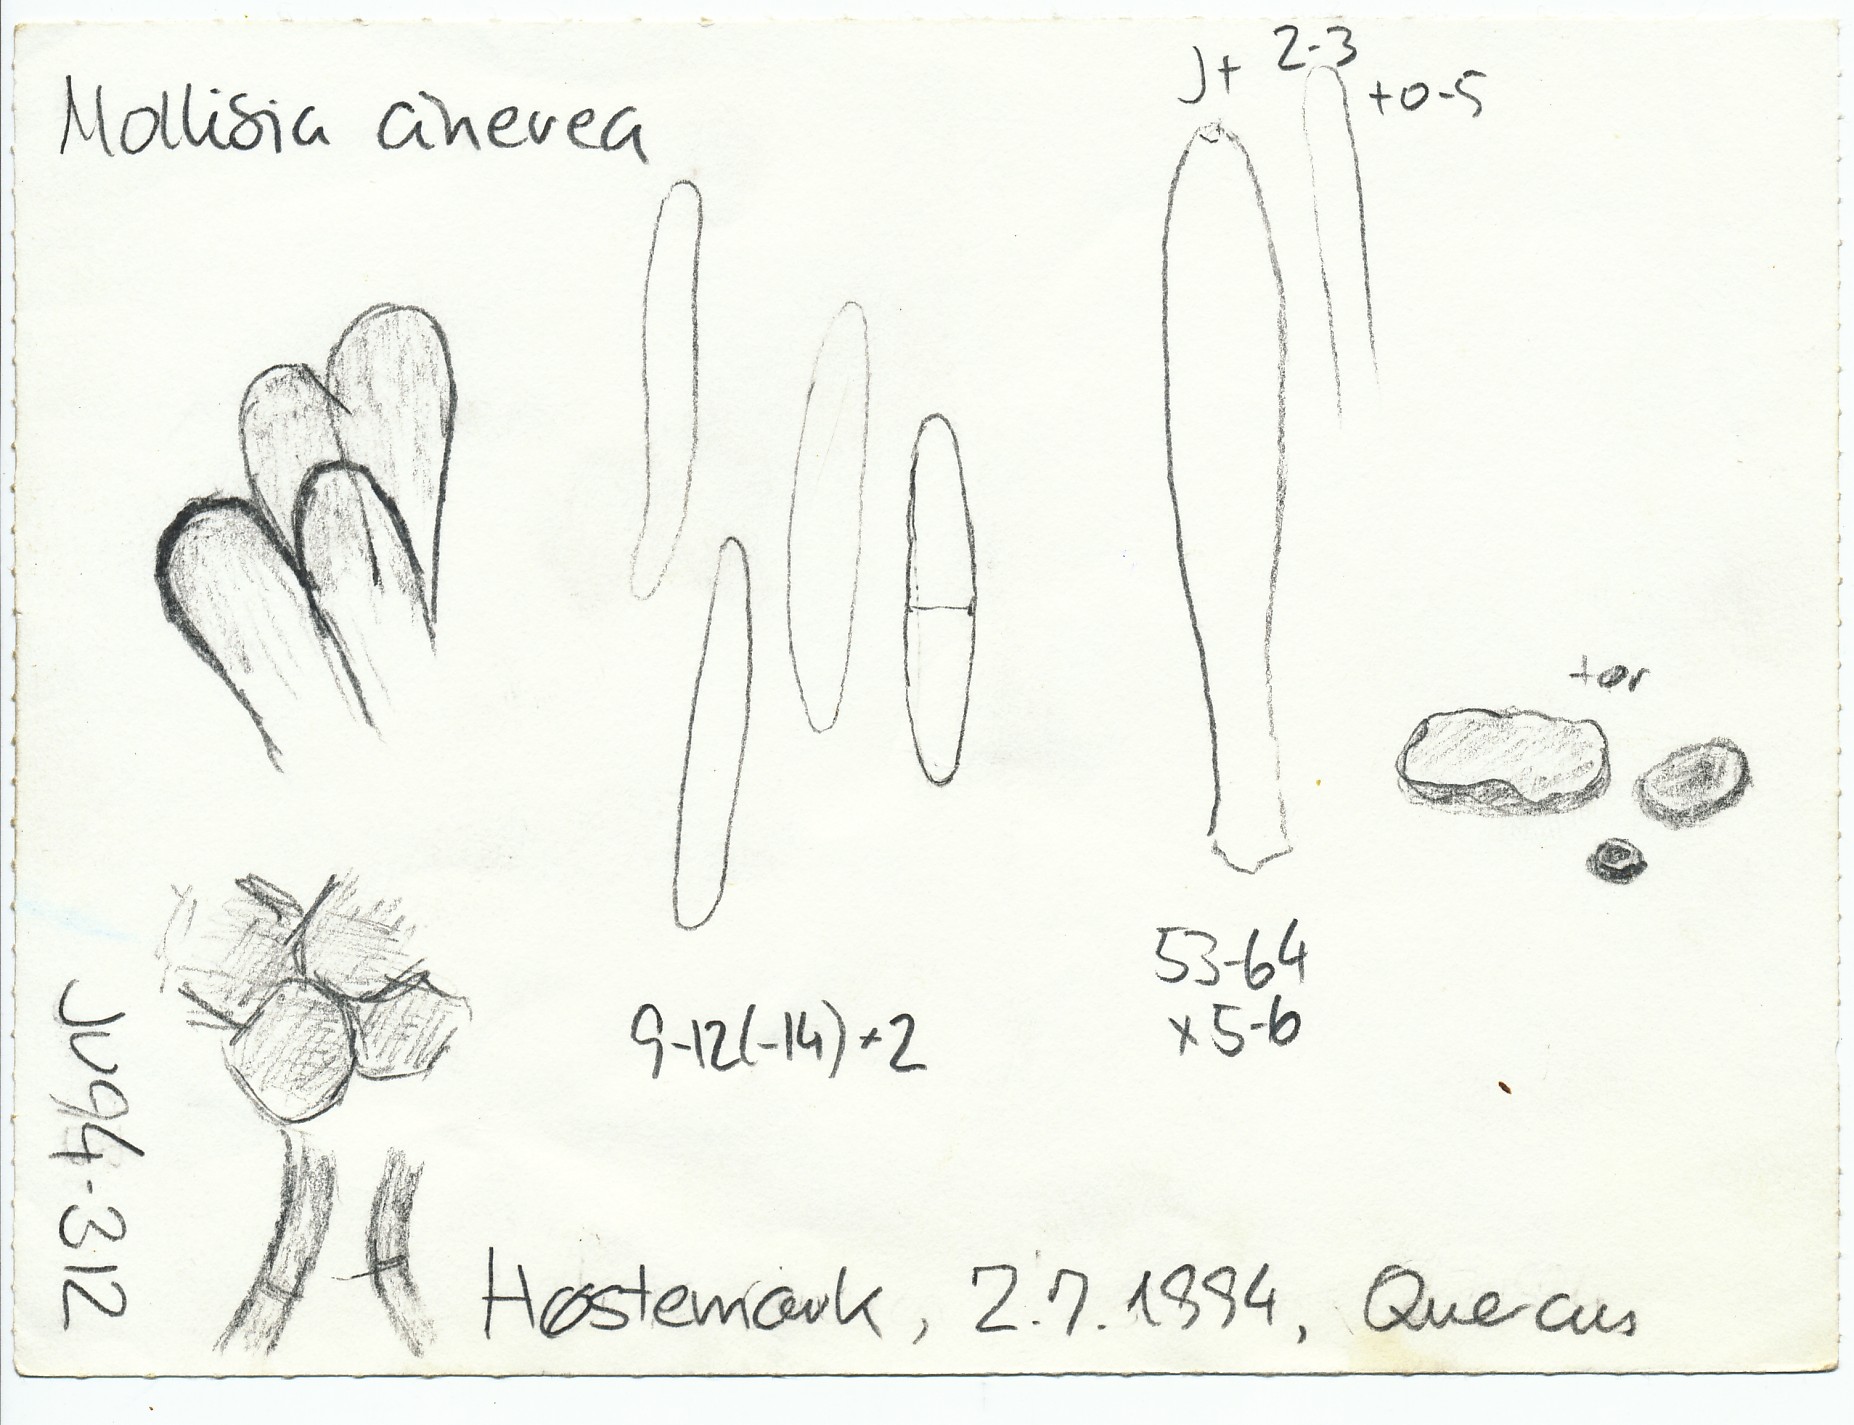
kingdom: Fungi
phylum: Ascomycota
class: Leotiomycetes
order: Helotiales
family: Mollisiaceae
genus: Mollisia
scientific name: Mollisia cinerea
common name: almindelig gråskive
